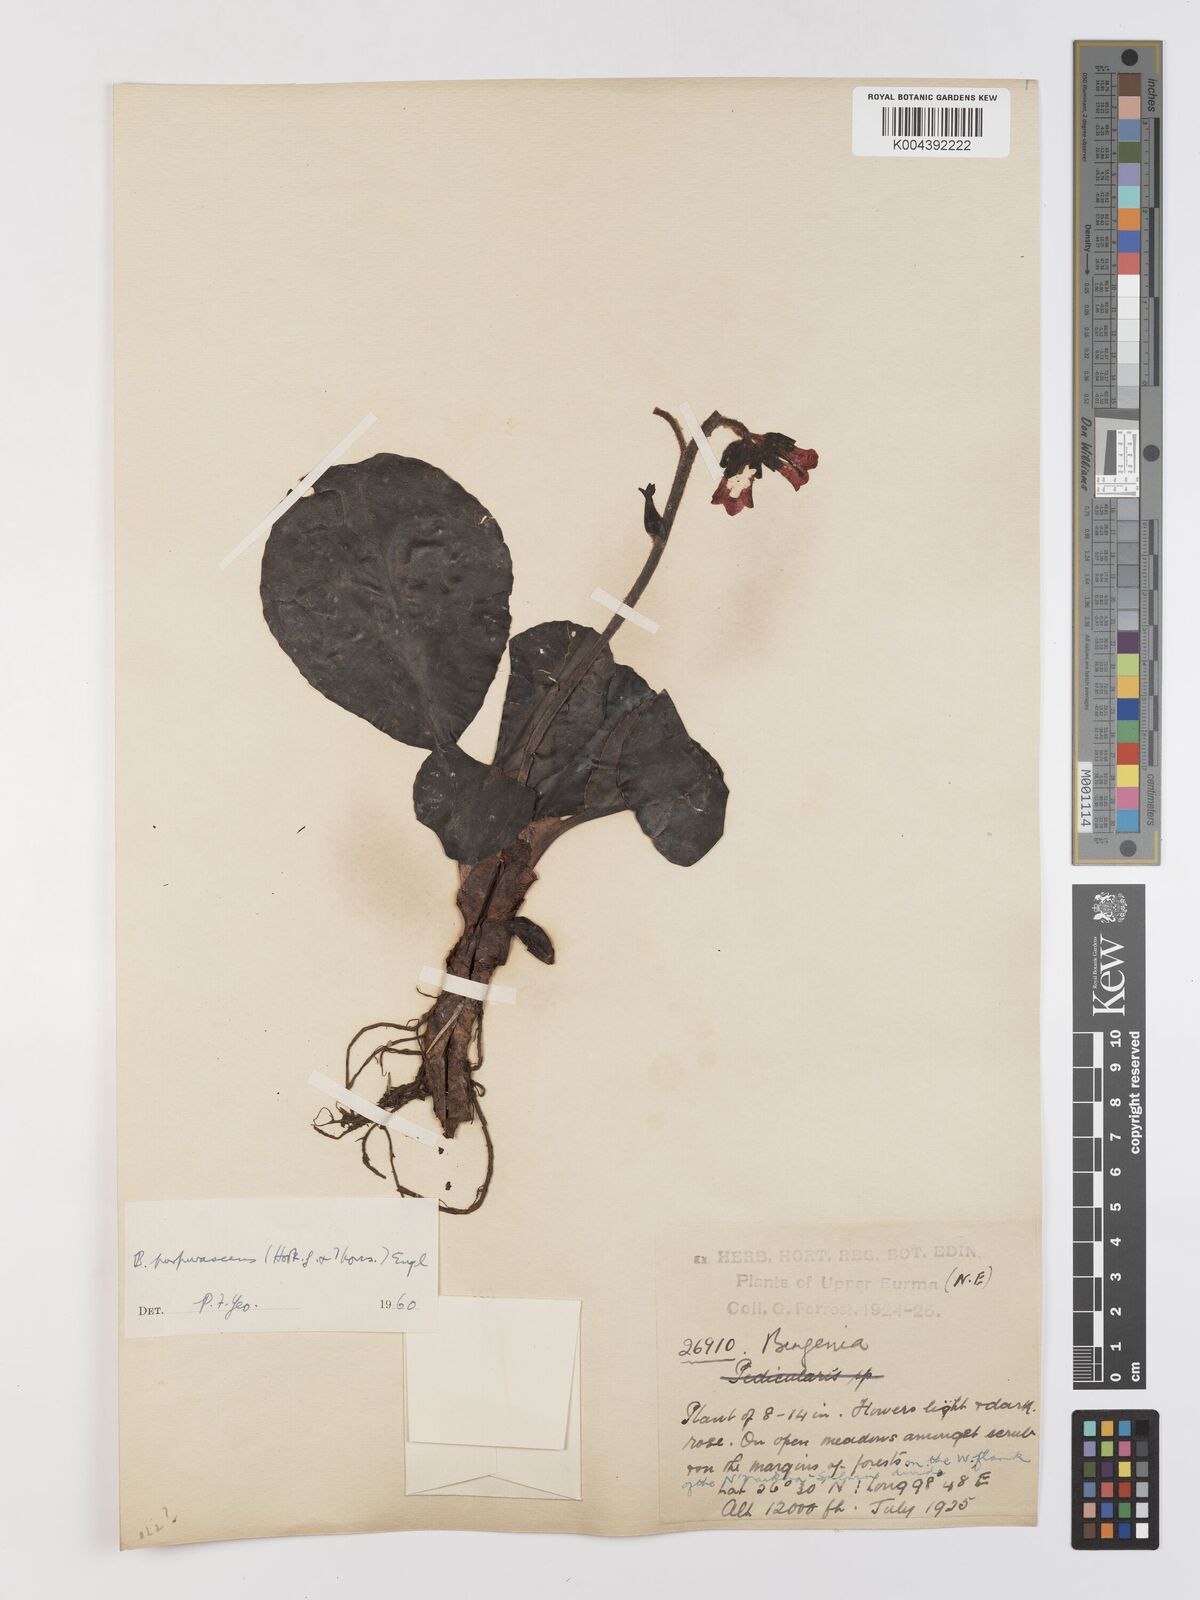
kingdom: Plantae
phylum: Tracheophyta
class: Magnoliopsida
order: Saxifragales
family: Saxifragaceae
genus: Bergenia
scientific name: Bergenia purpurascens
